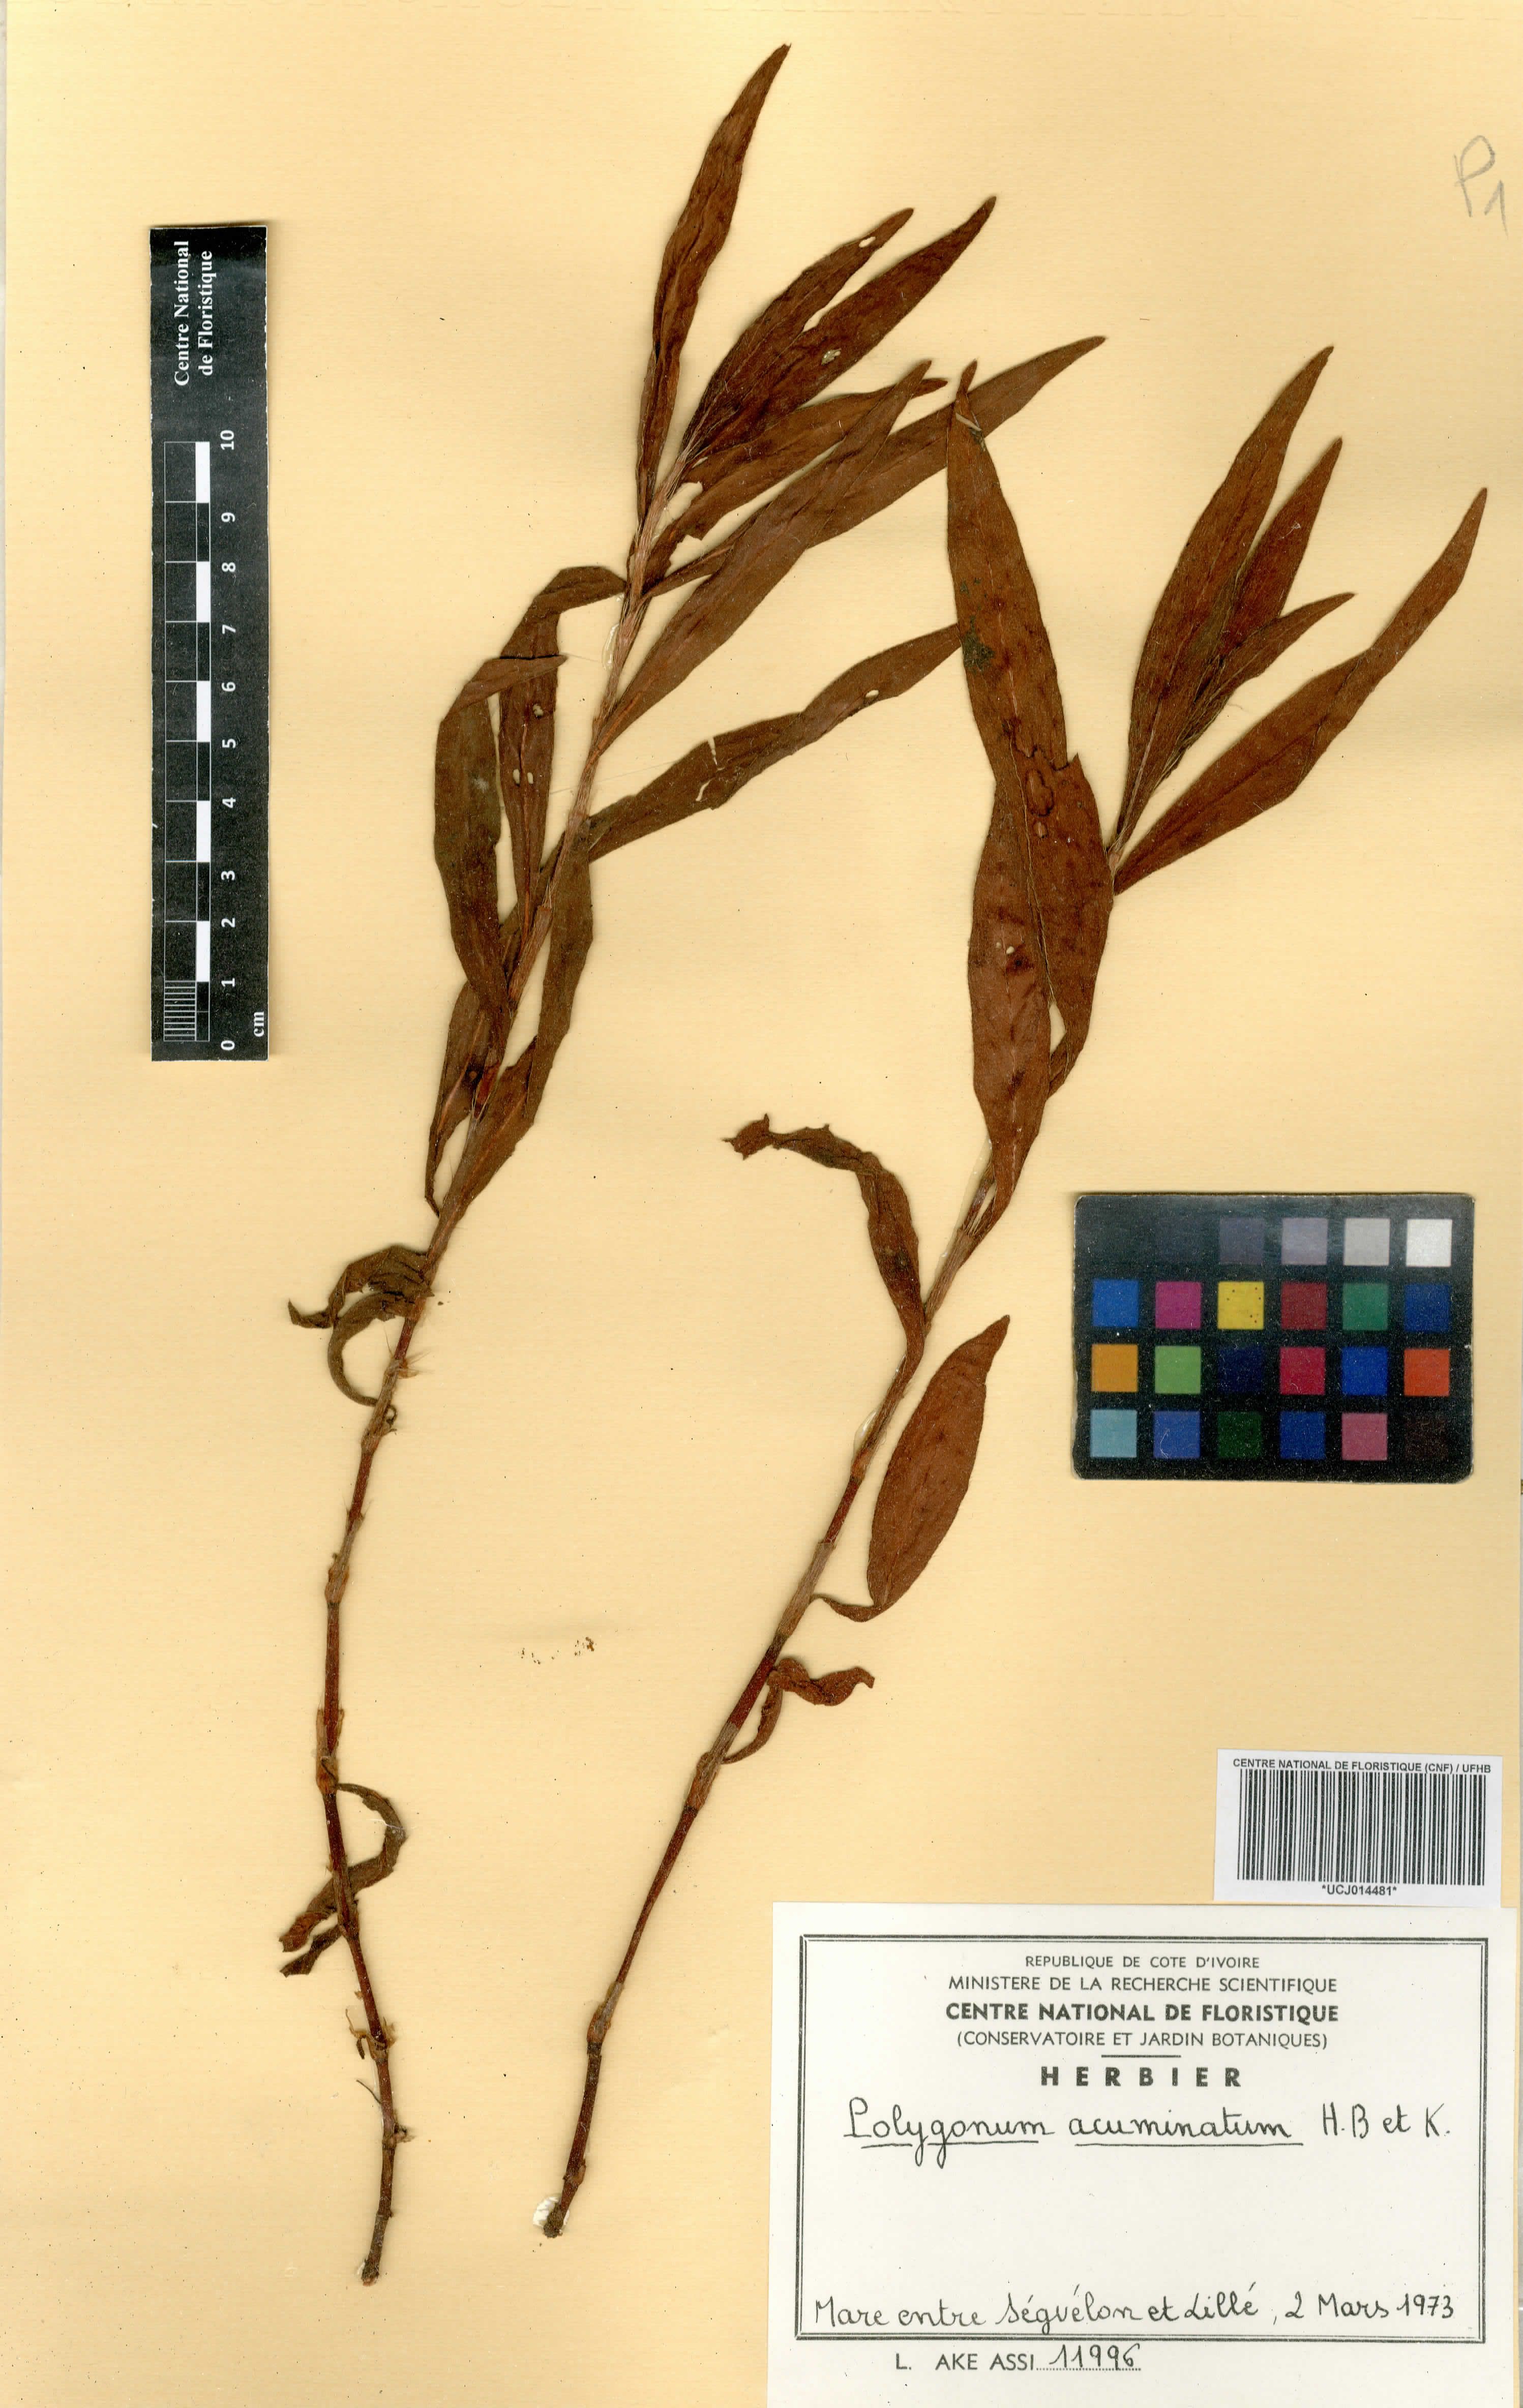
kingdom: Plantae
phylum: Tracheophyta
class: Magnoliopsida
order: Caryophyllales
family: Polygonaceae
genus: Persicaria
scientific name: Persicaria acuminata
